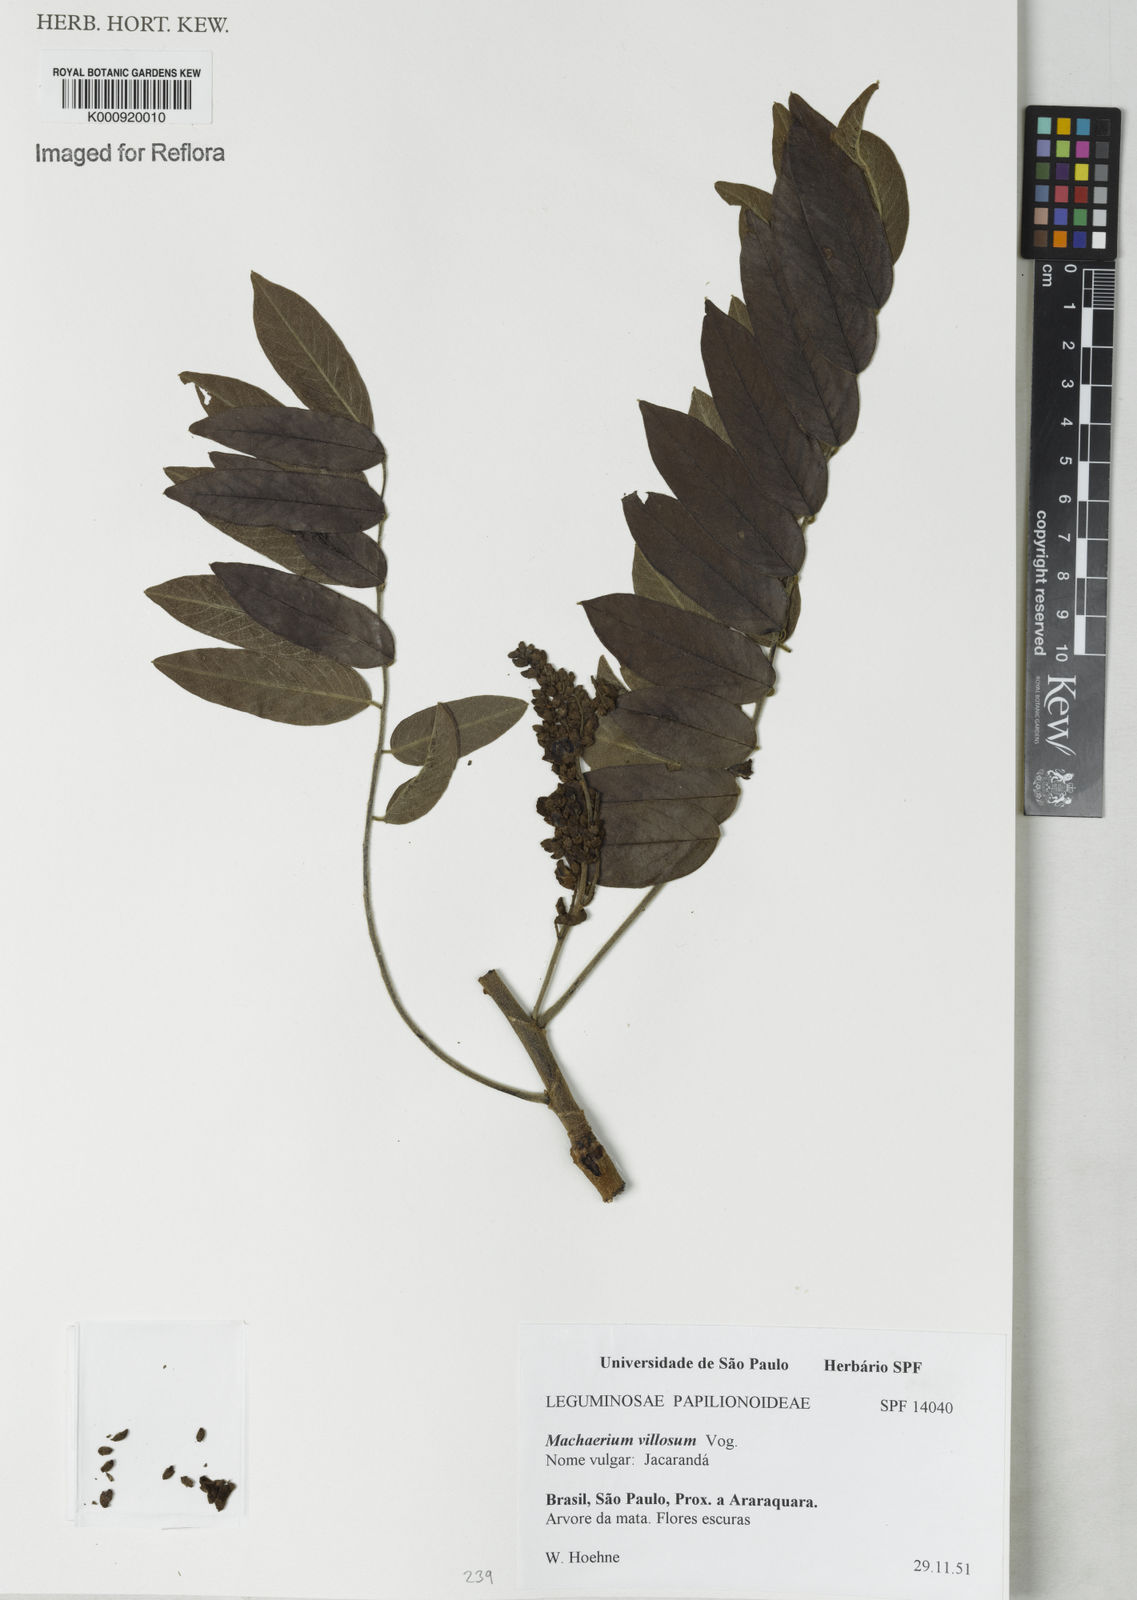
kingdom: Plantae
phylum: Tracheophyta
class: Magnoliopsida
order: Fabales
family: Fabaceae
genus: Machaerium
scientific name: Machaerium villosum
